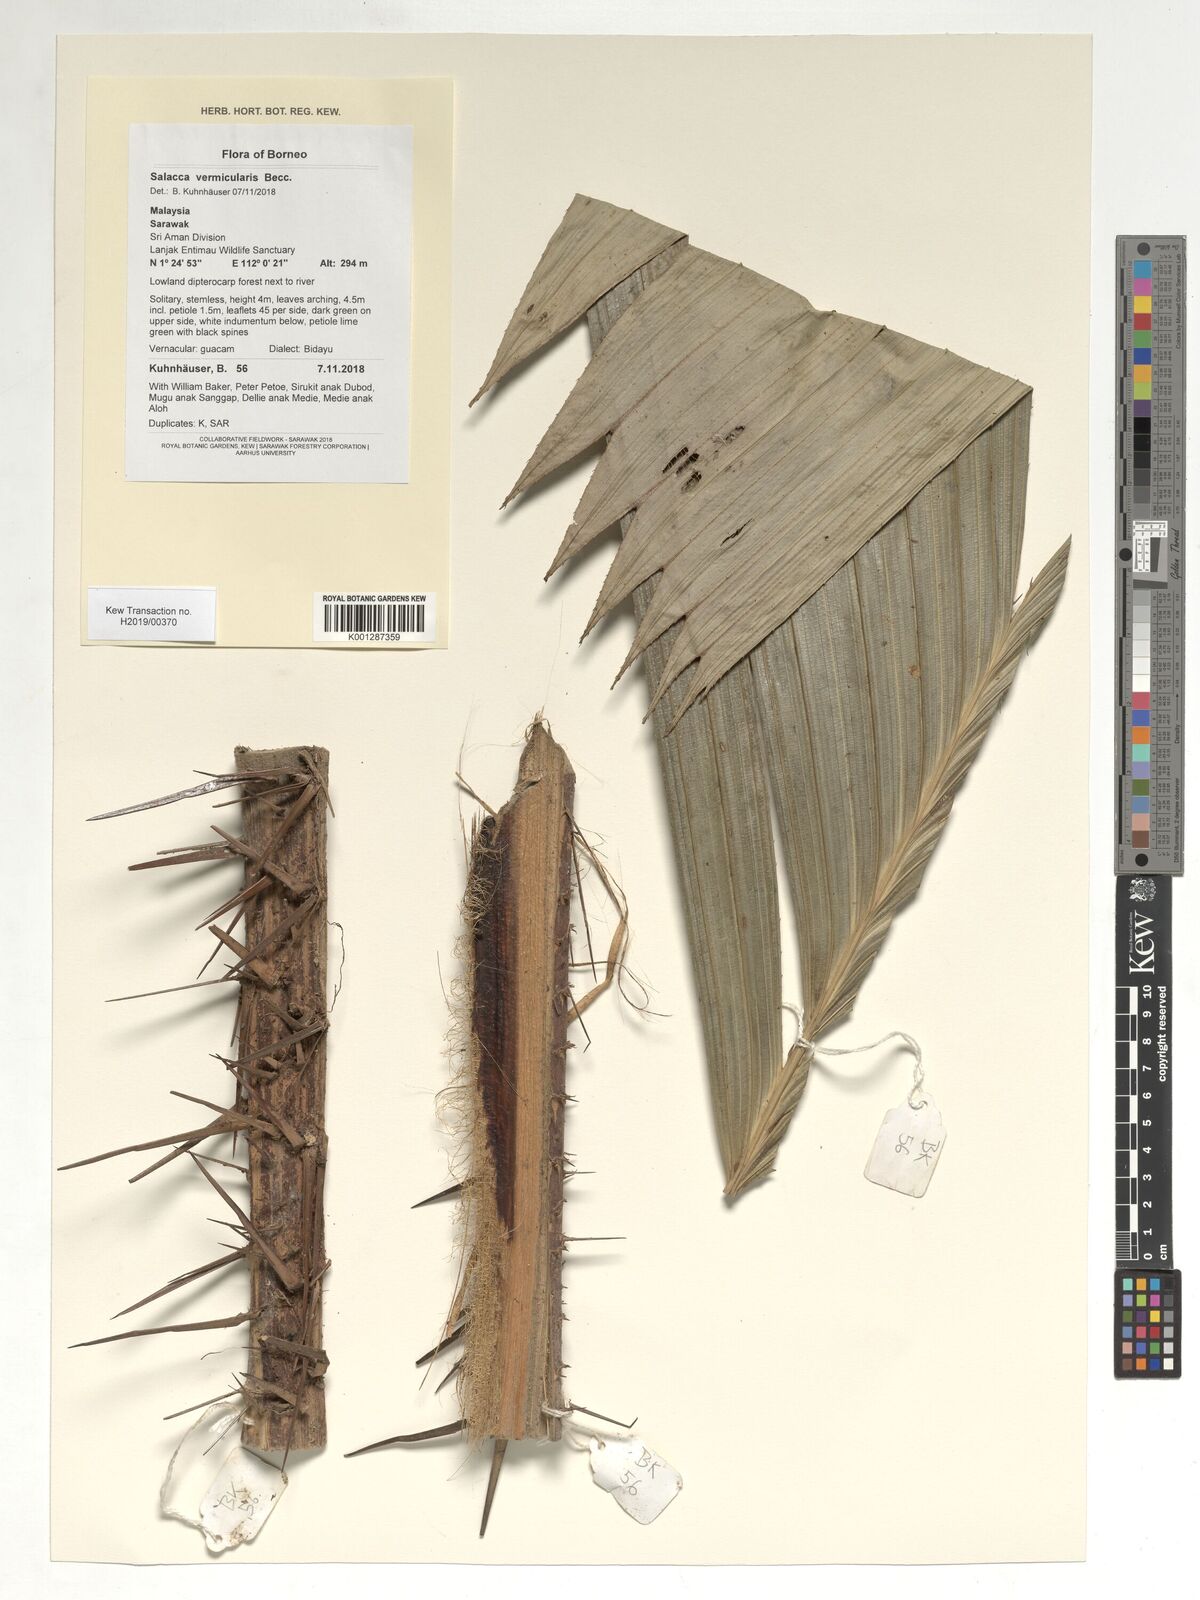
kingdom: Plantae
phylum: Tracheophyta
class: Liliopsida
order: Arecales
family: Arecaceae
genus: Salacca
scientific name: Salacca vermicularis
